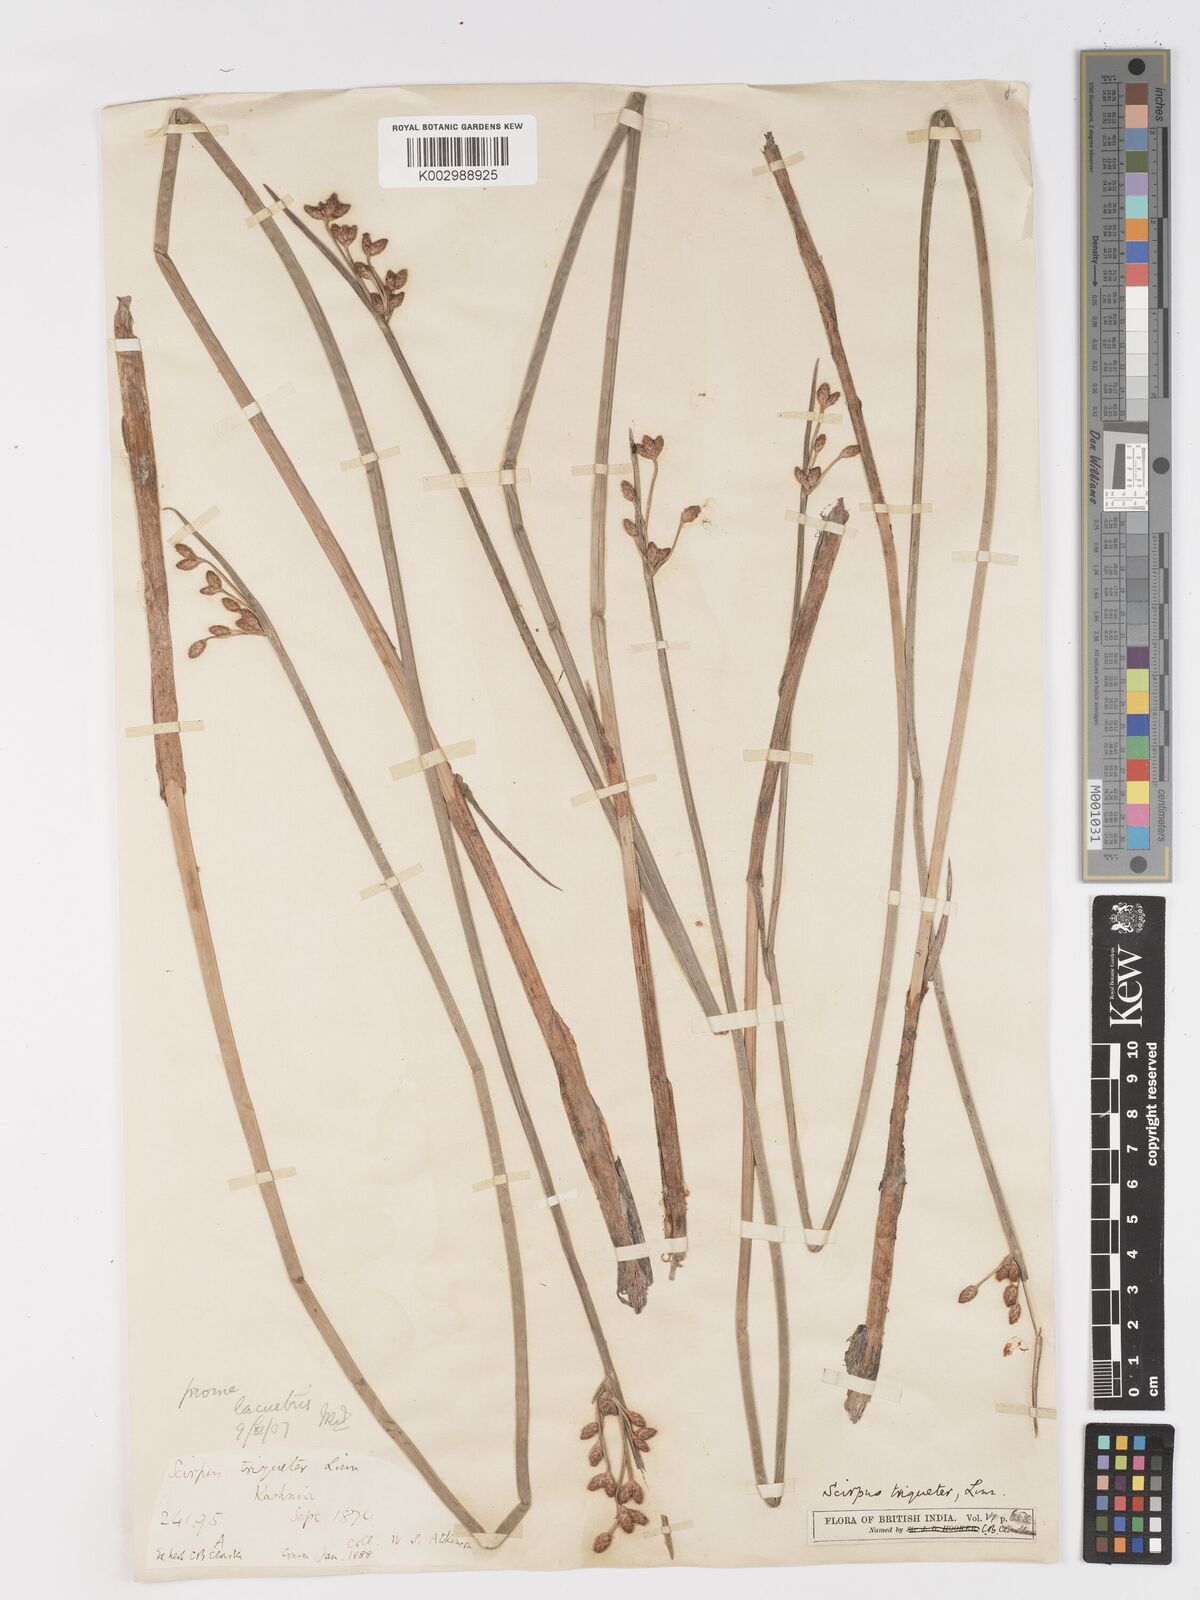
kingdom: Plantae
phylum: Tracheophyta
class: Liliopsida
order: Poales
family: Cyperaceae
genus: Schoenoplectus
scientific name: Schoenoplectus triqueter
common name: Triangular club-rush
